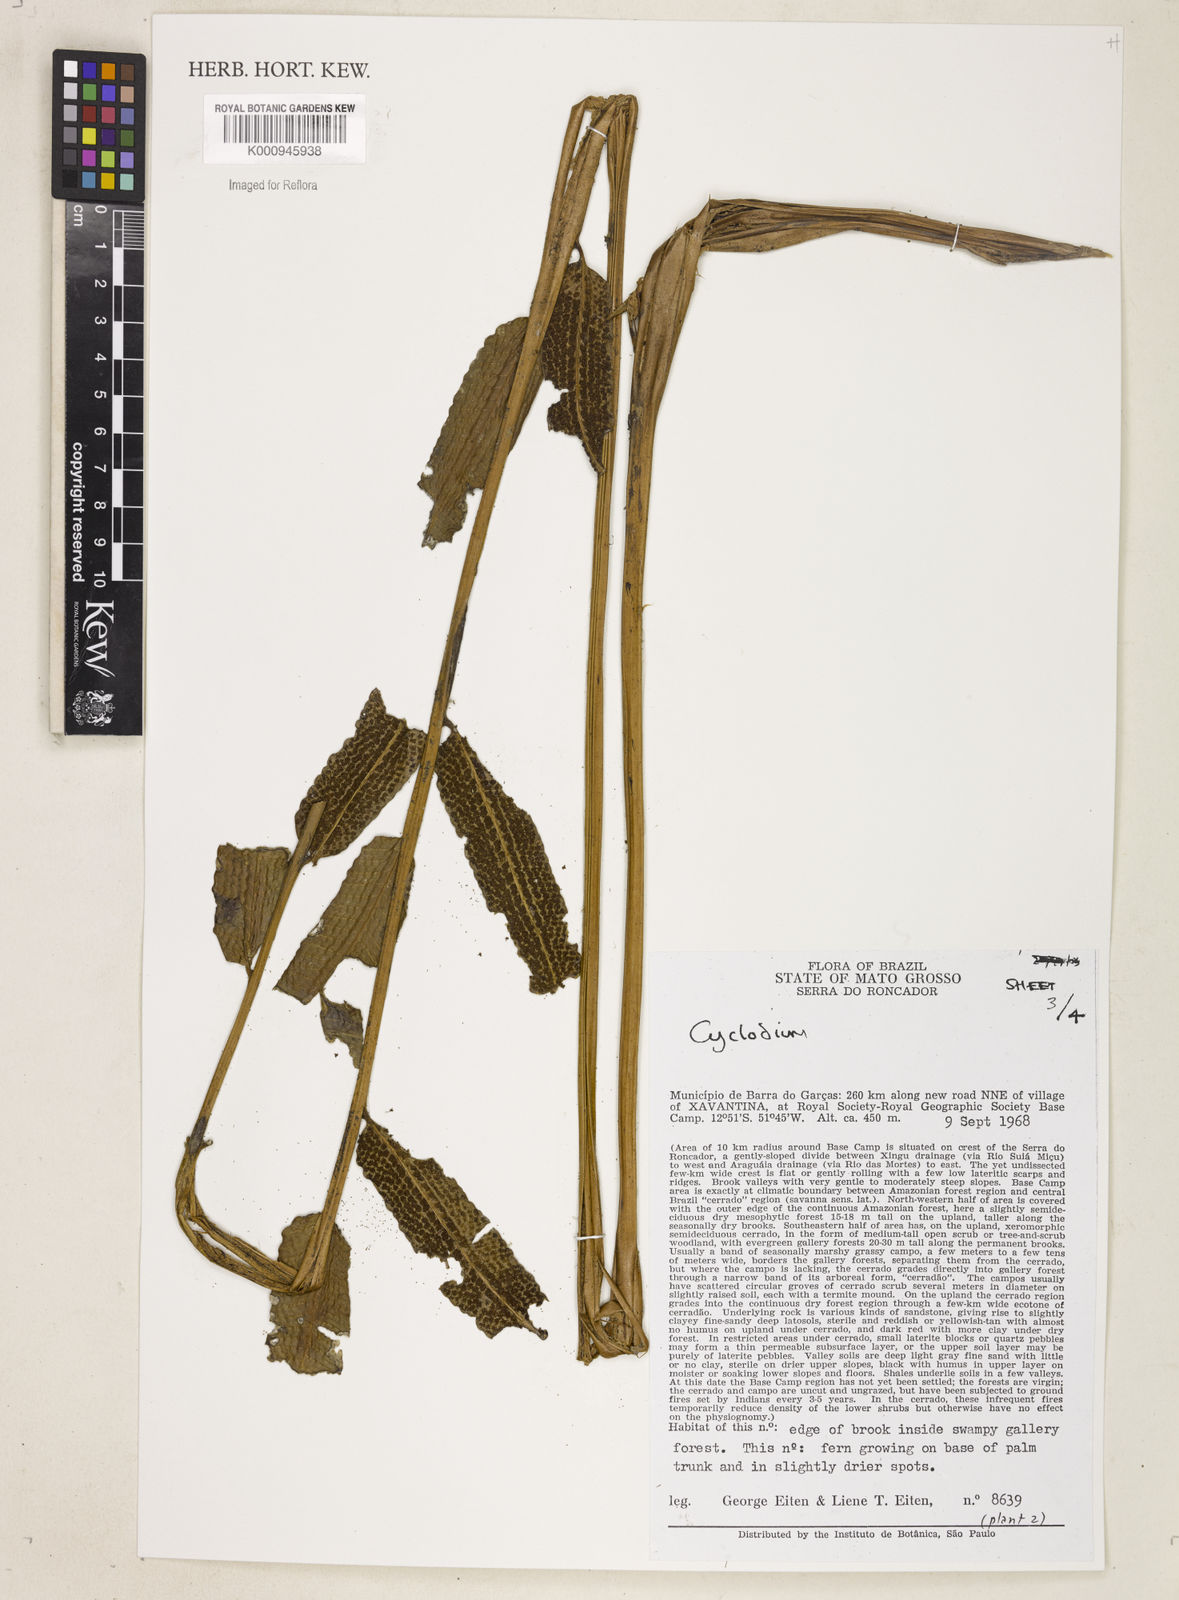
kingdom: Plantae
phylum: Tracheophyta
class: Polypodiopsida
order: Polypodiales
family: Dryopteridaceae
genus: Cyclodium
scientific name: Cyclodium meniscioides
